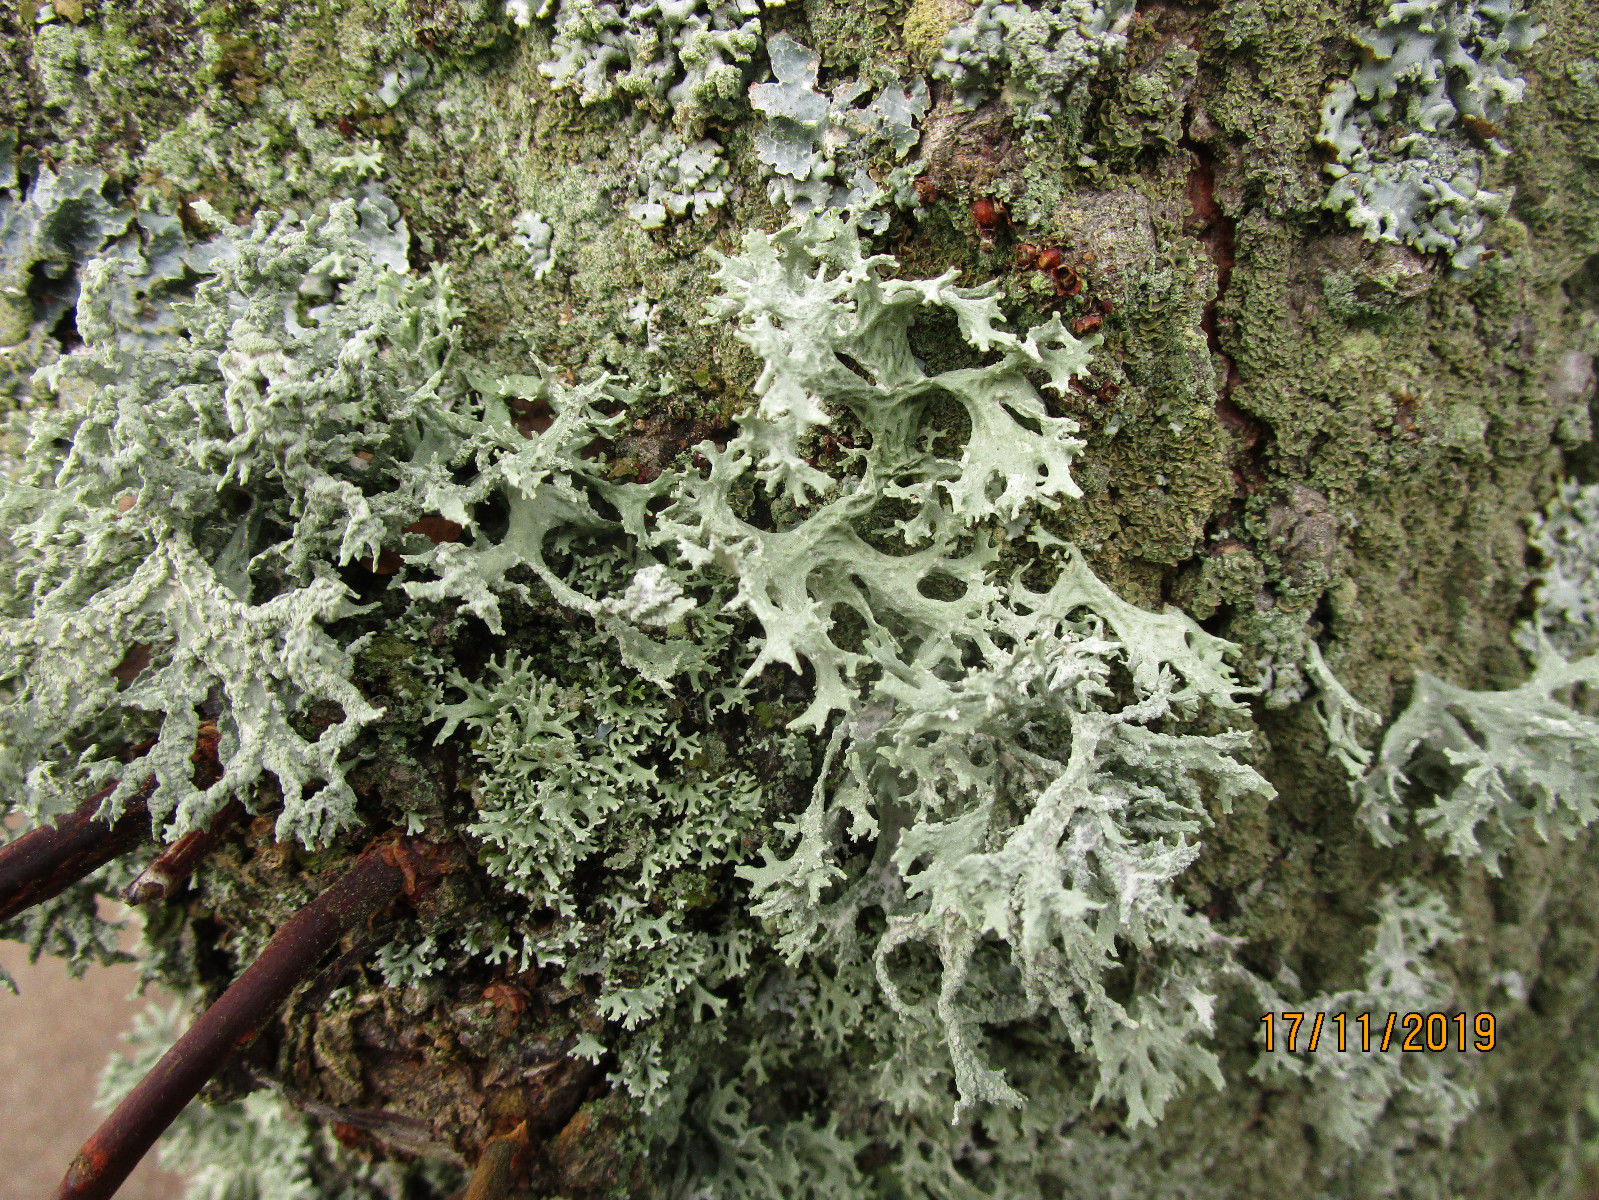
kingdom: Fungi
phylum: Ascomycota
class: Lecanoromycetes
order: Lecanorales
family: Parmeliaceae
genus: Evernia
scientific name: Evernia prunastri
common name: almindelig slåenlav
